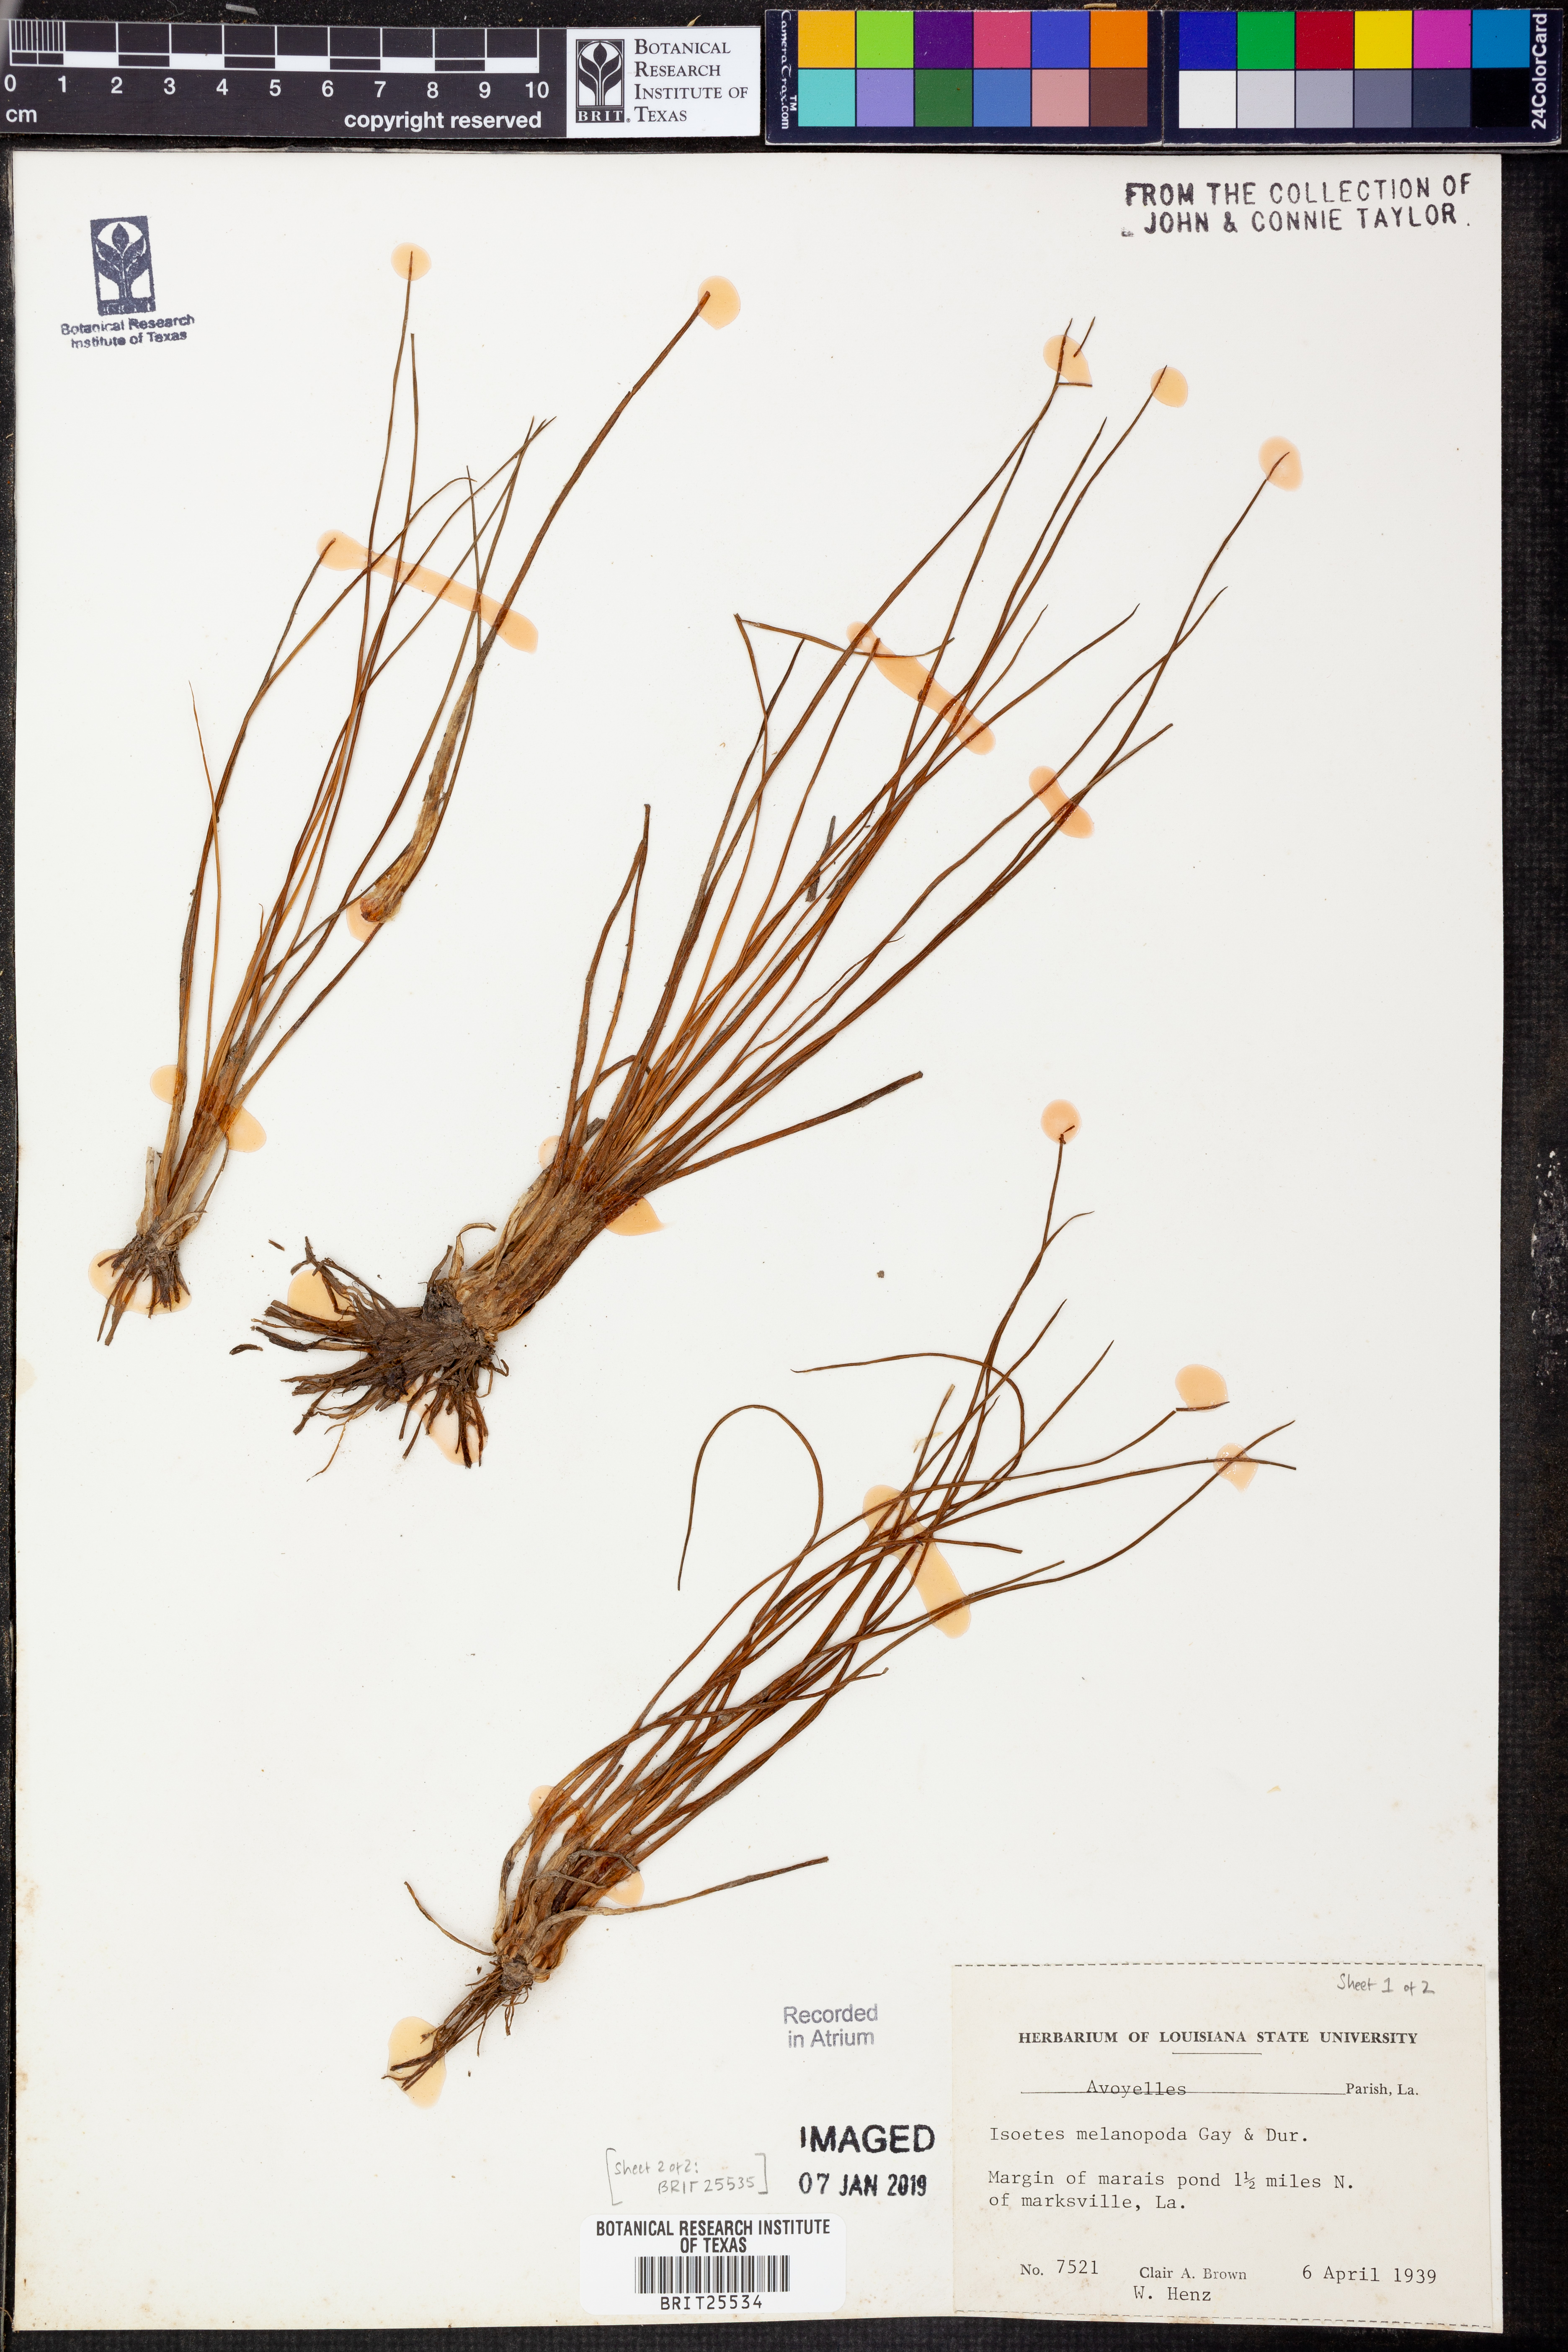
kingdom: Plantae
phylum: Tracheophyta
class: Lycopodiopsida
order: Isoetales
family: Isoetaceae
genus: Isoetes
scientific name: Isoetes melanopoda
